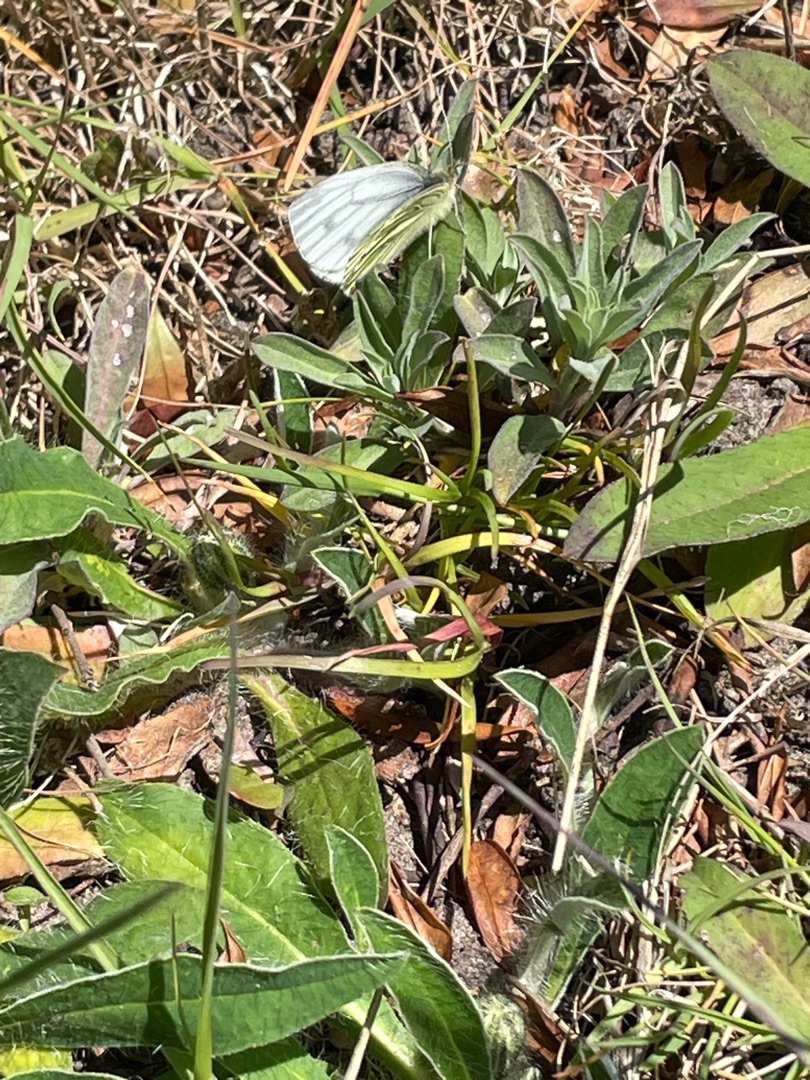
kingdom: Animalia
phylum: Arthropoda
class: Insecta
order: Lepidoptera
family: Pieridae
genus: Pieris
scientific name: Pieris napi
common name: Grønåret kålsommerfugl
